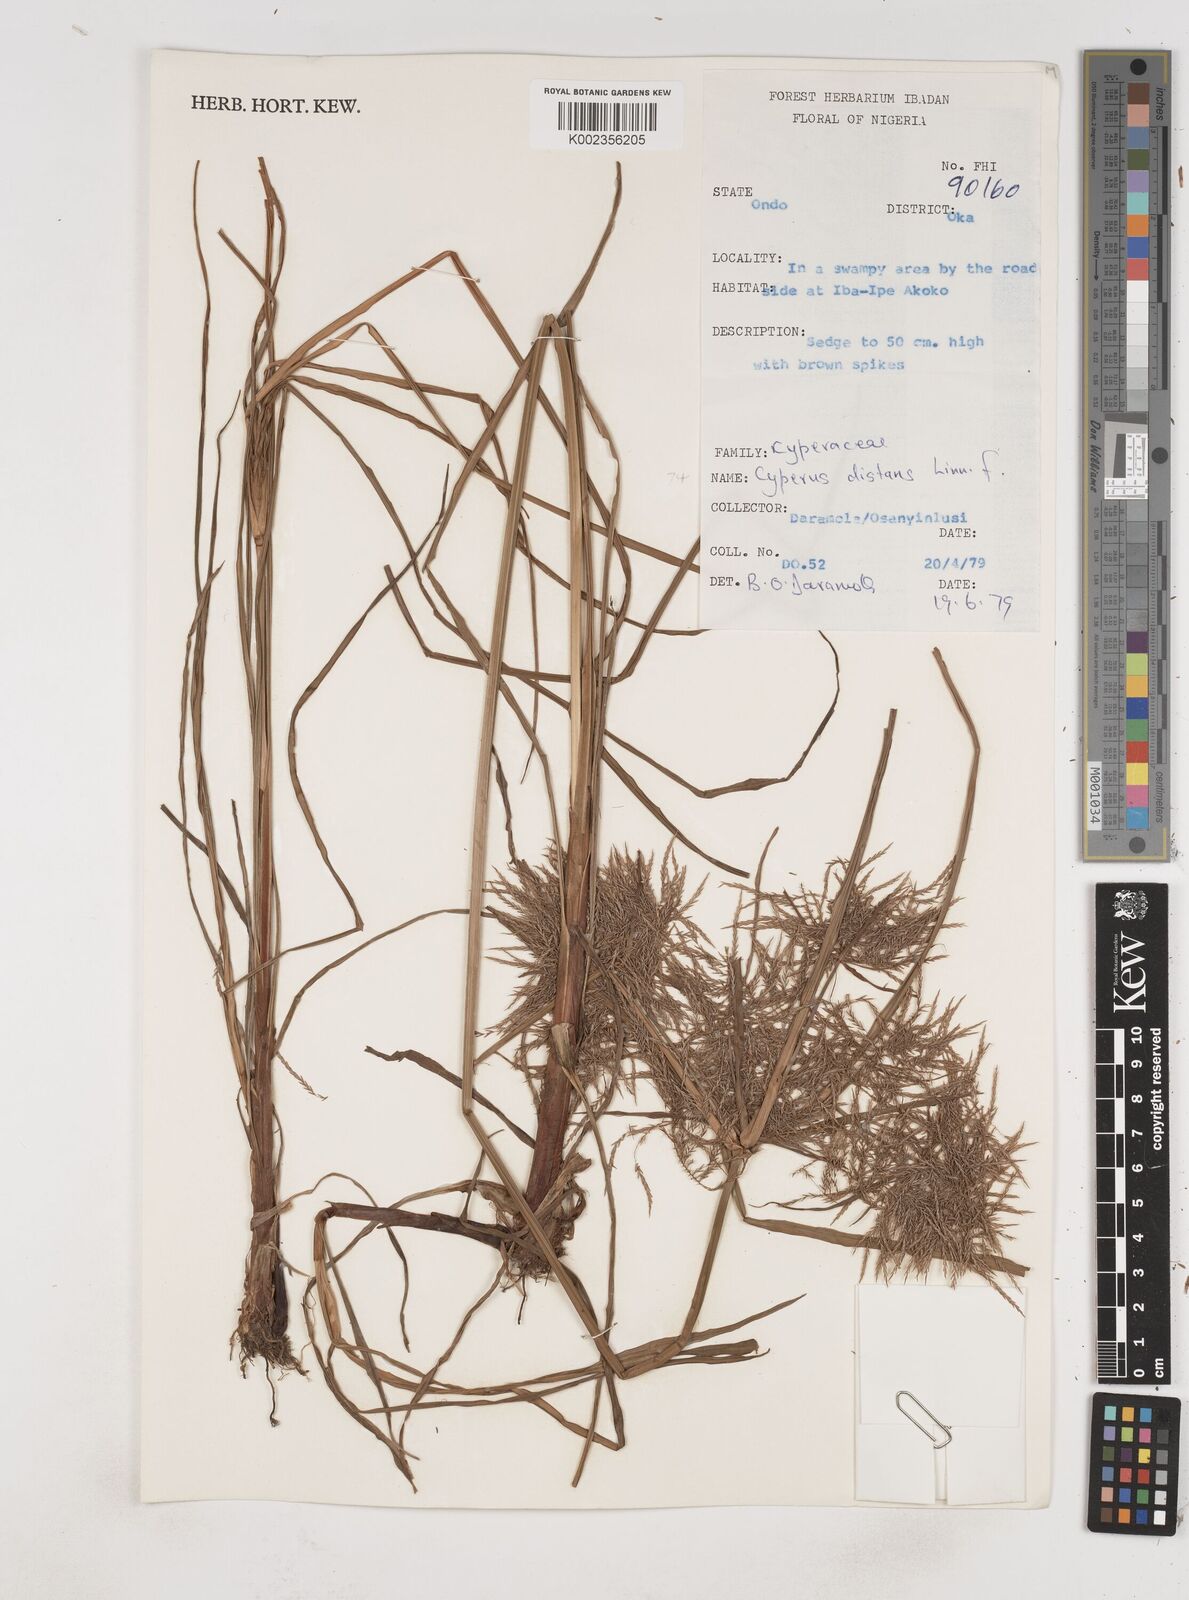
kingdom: Plantae
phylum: Tracheophyta
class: Liliopsida
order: Poales
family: Cyperaceae
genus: Cyperus
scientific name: Cyperus distans
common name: Slender cyperus
